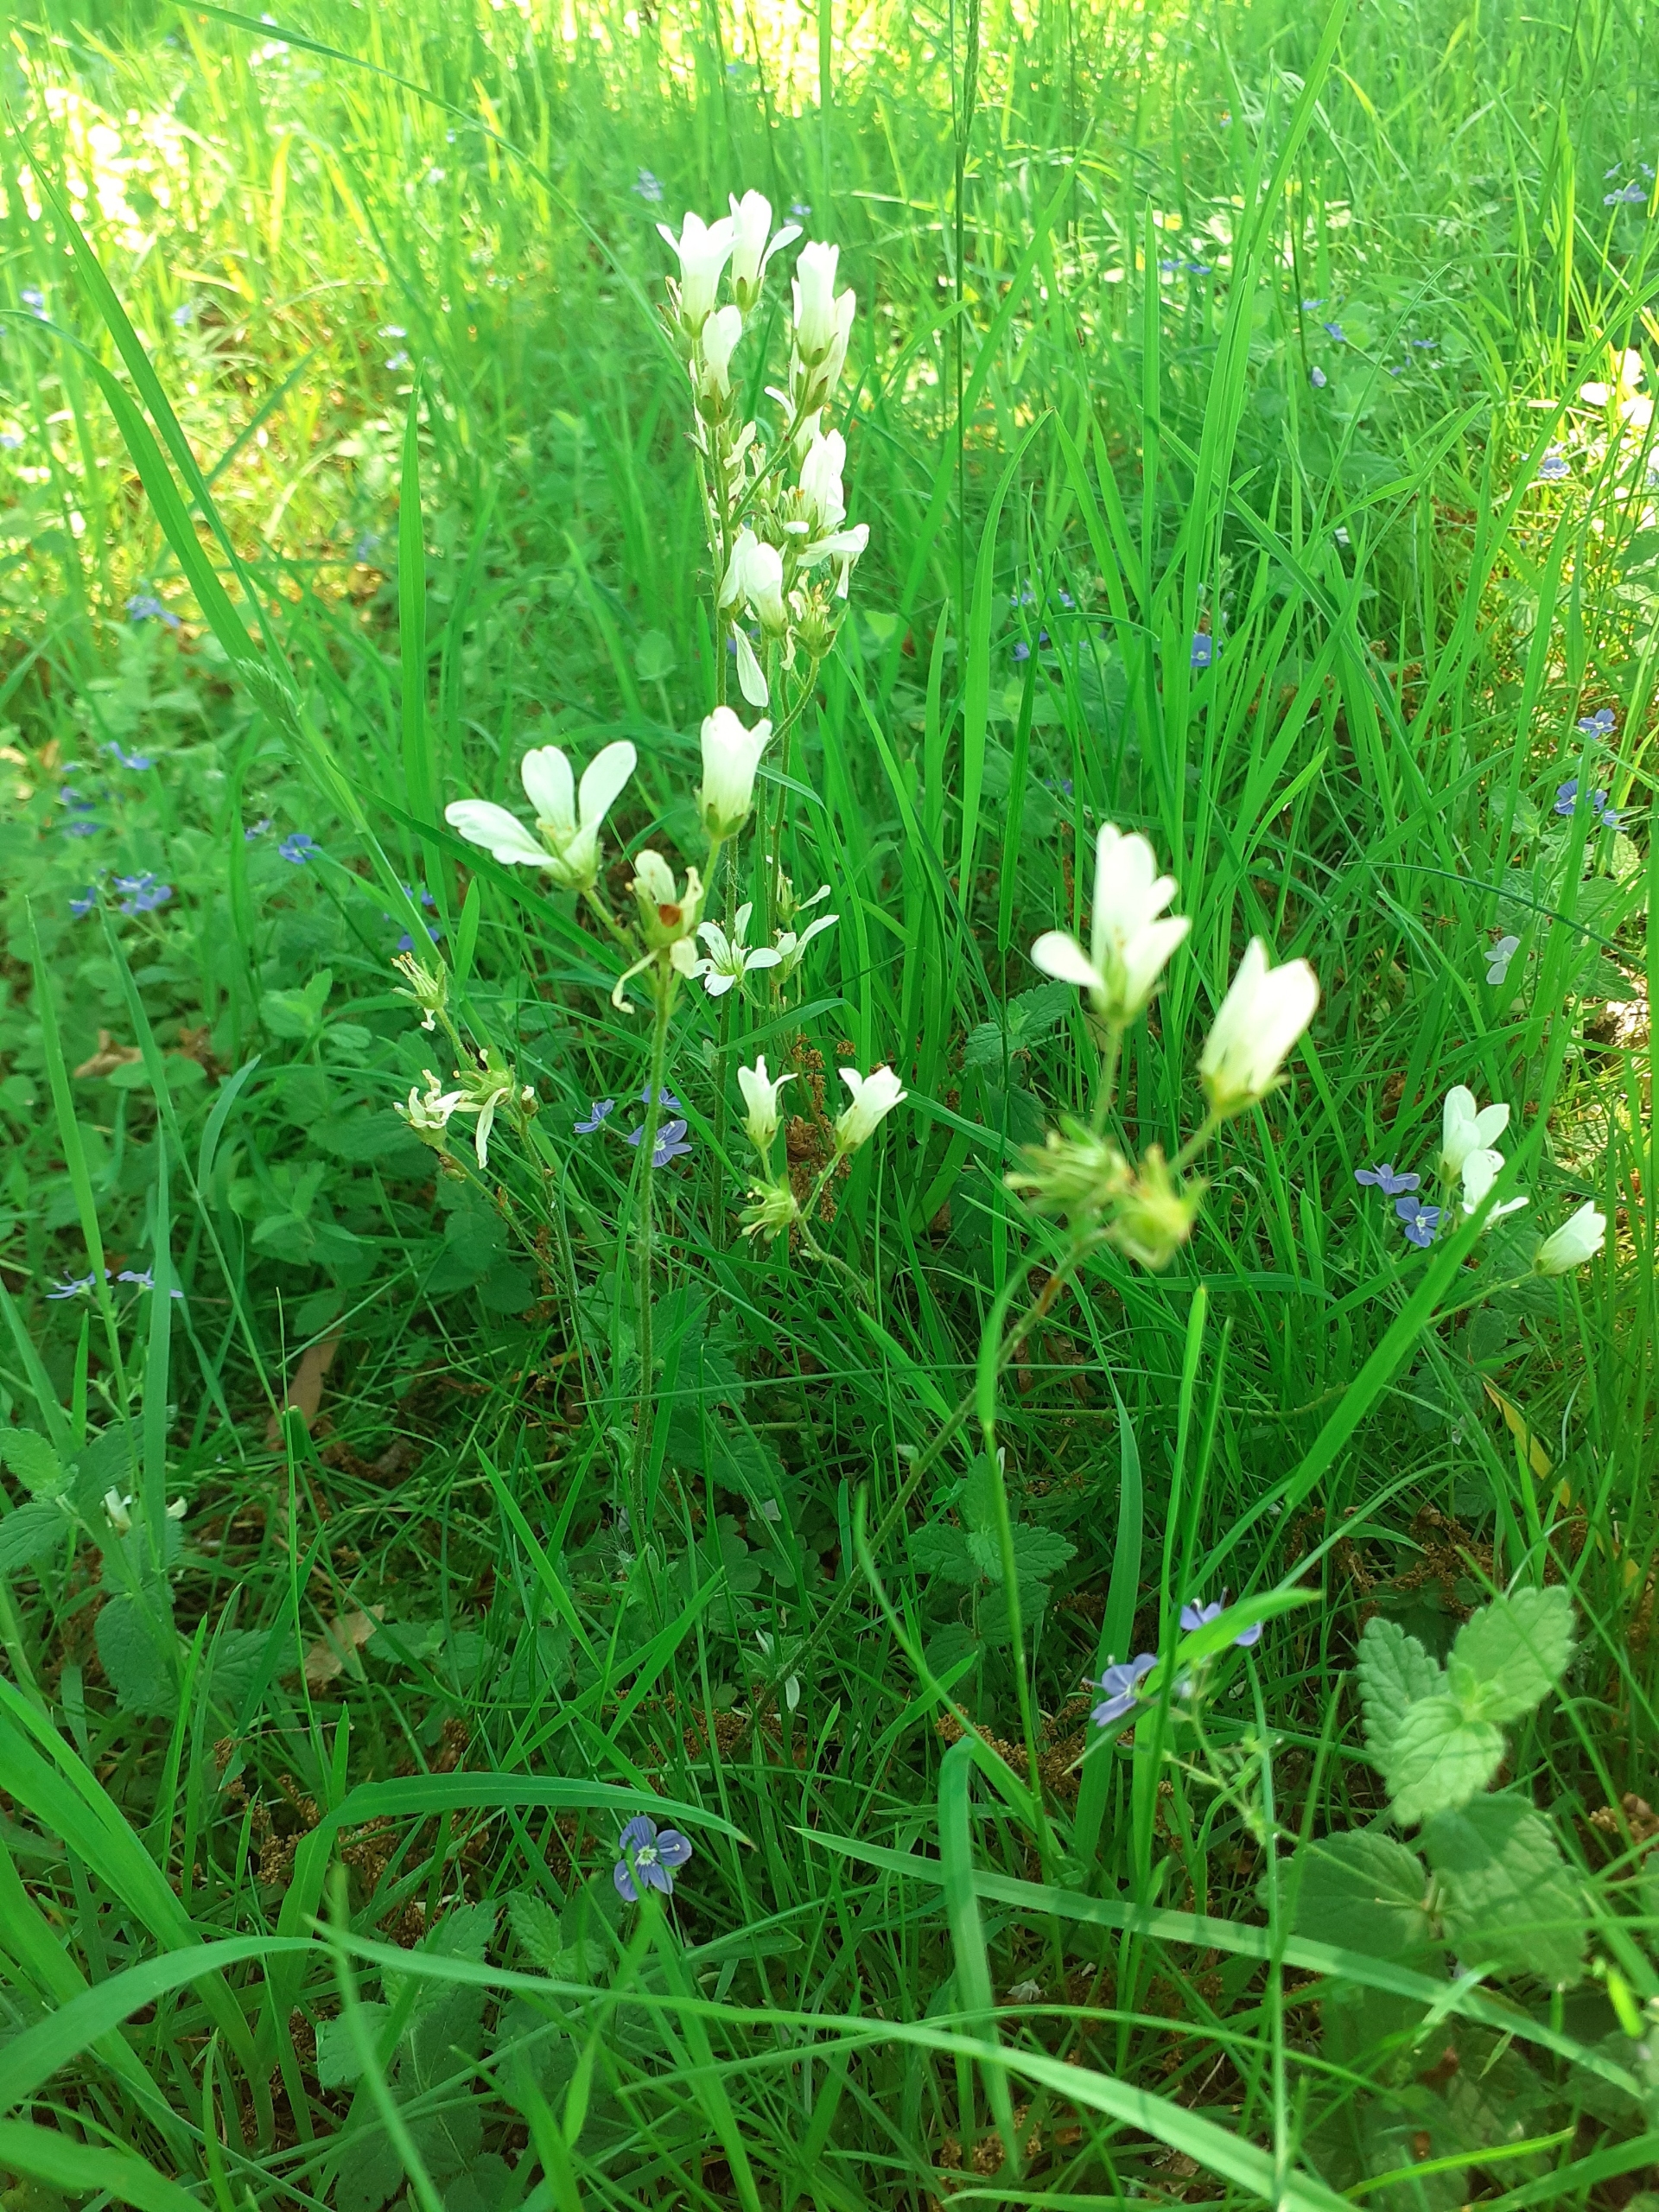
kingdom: Plantae
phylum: Tracheophyta
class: Magnoliopsida
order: Saxifragales
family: Saxifragaceae
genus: Saxifraga
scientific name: Saxifraga granulata
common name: Kornet stenbræk
